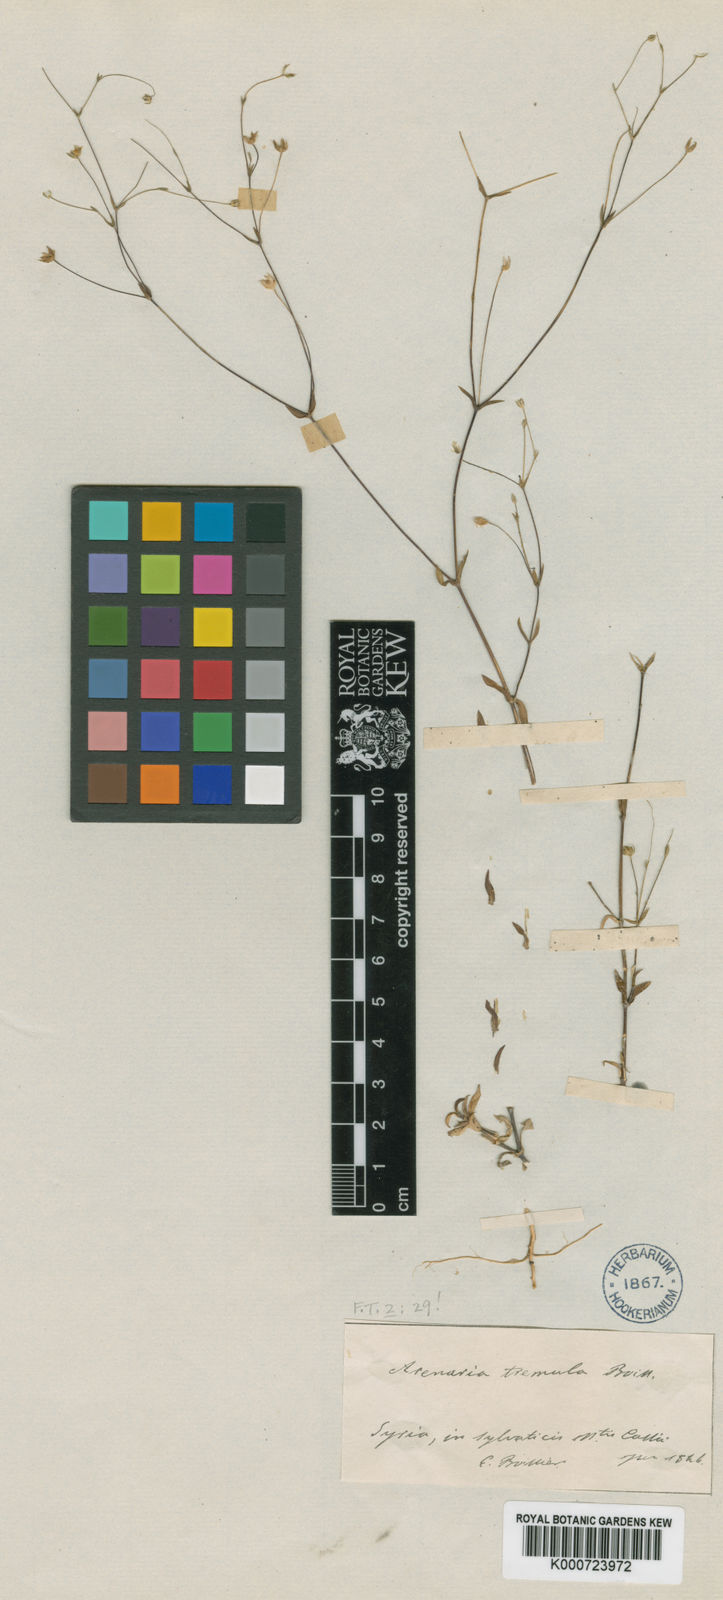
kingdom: Plantae
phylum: Tracheophyta
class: Magnoliopsida
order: Caryophyllales
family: Caryophyllaceae
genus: Arenaria
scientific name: Arenaria serpyllifolia
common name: Thyme-leaved sandwort
